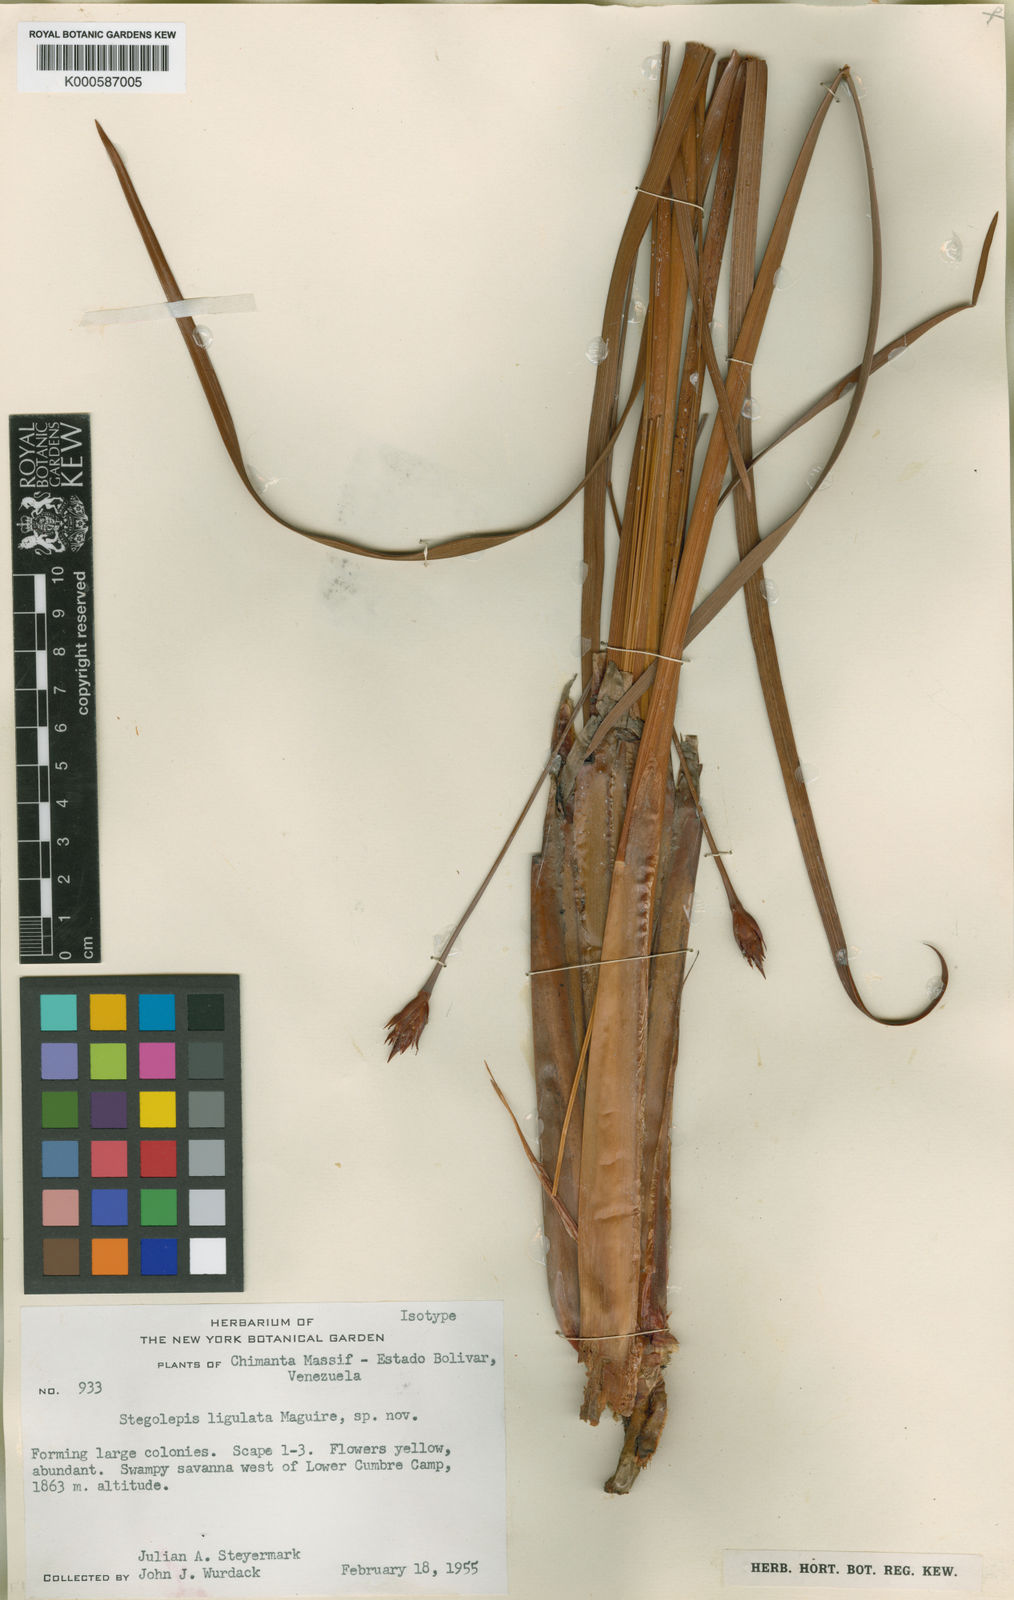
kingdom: Plantae
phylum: Tracheophyta
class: Liliopsida
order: Poales
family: Rapateaceae
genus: Stegolepis
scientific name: Stegolepis ligulata
